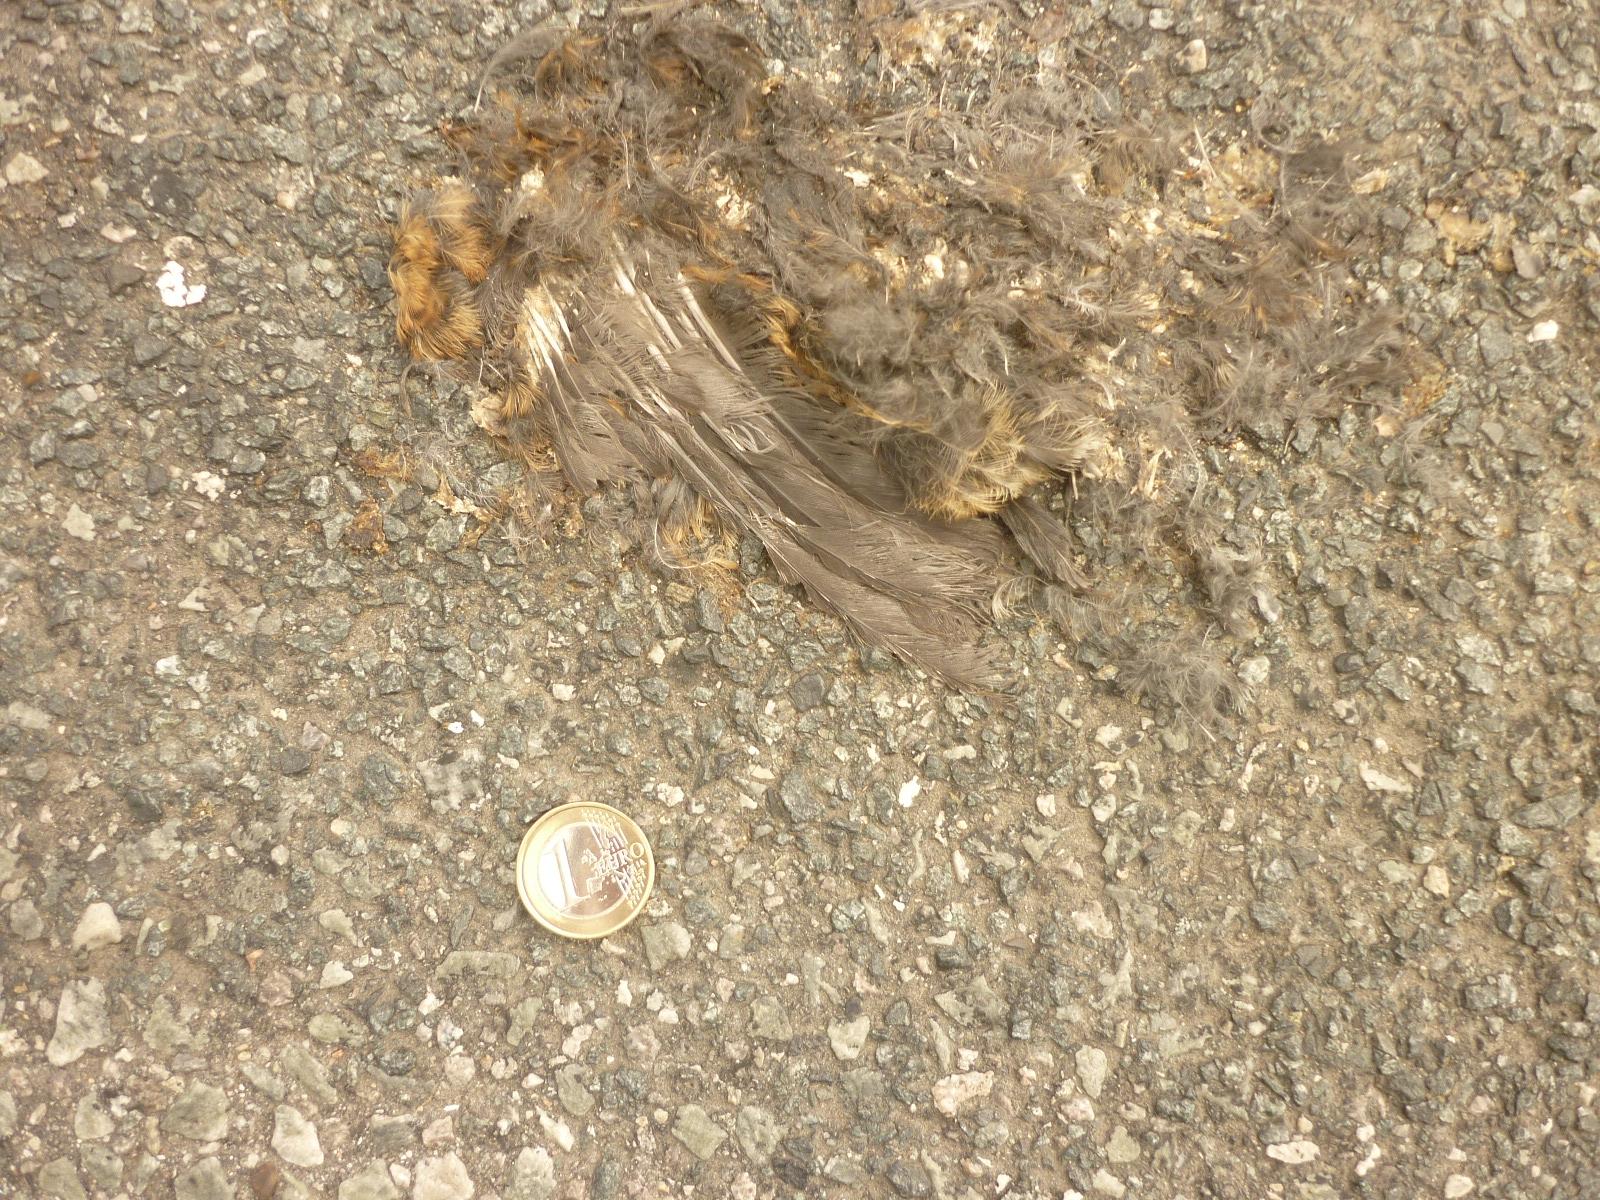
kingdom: Animalia
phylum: Chordata
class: Aves
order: Passeriformes
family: Turdidae
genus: Turdus
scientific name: Turdus merula
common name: Common blackbird
